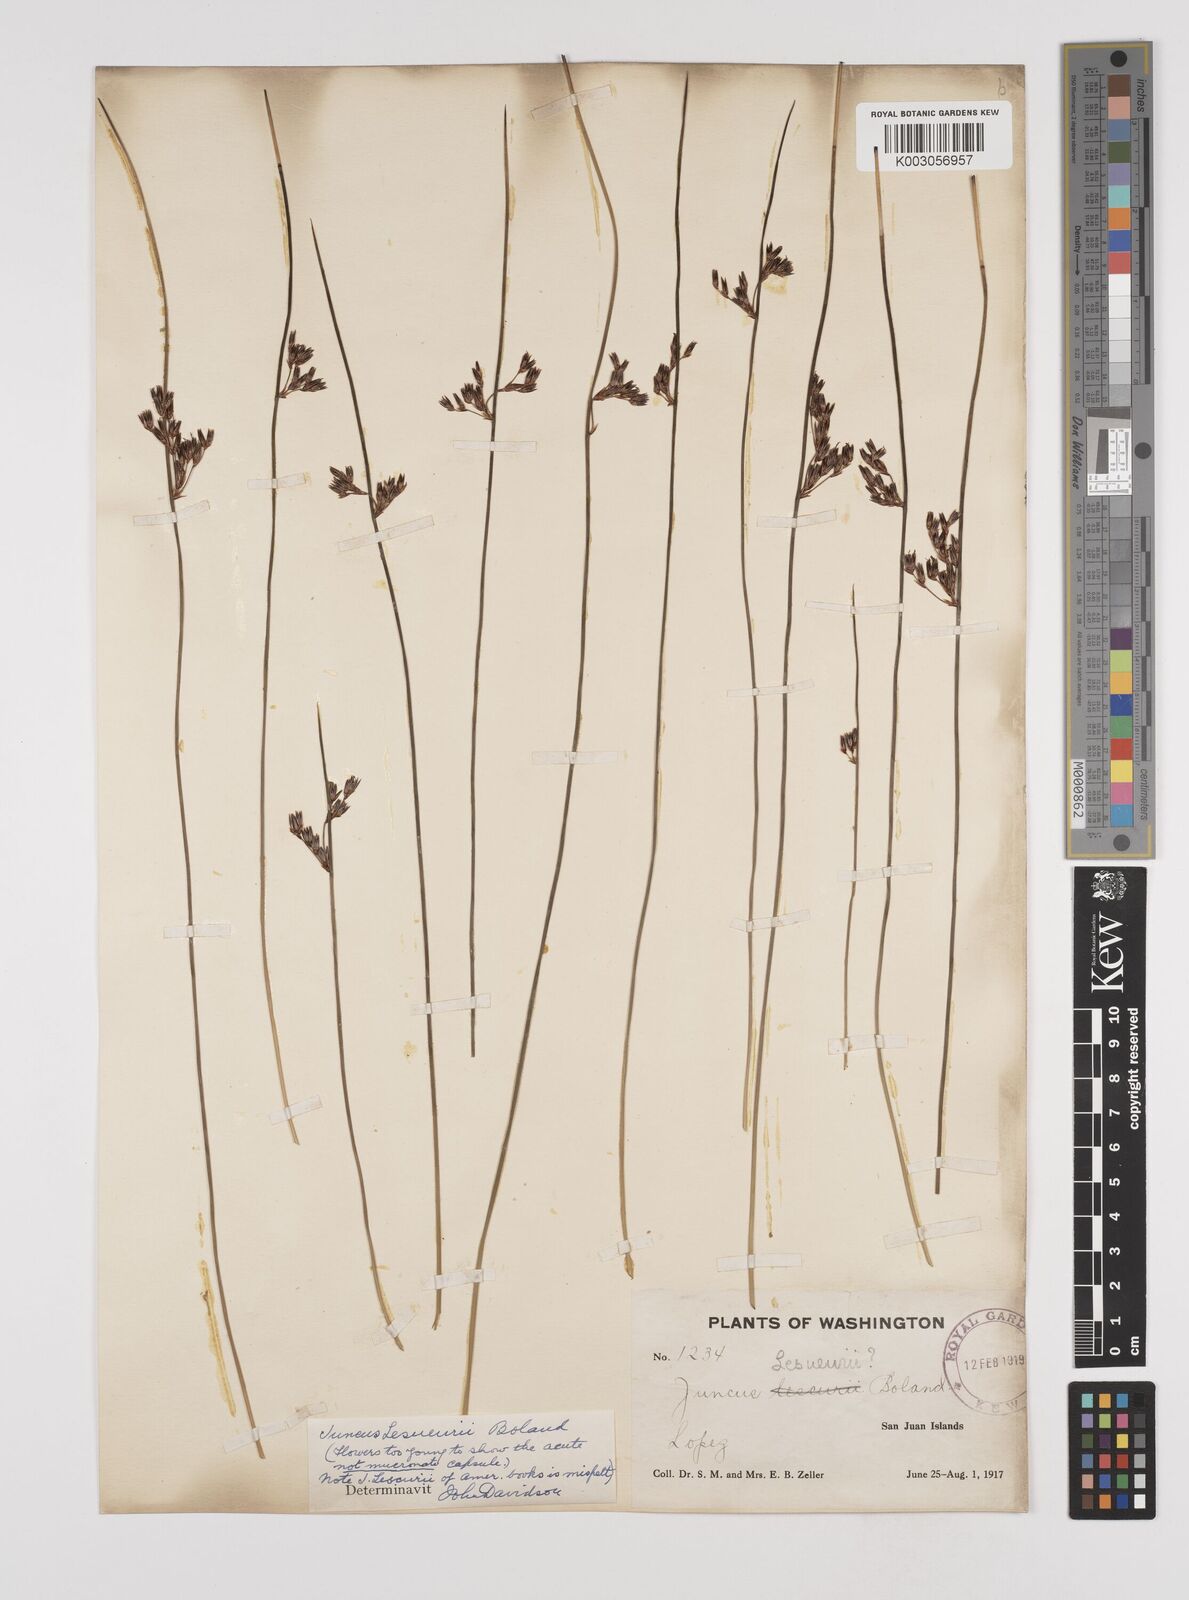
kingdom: Plantae
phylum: Tracheophyta
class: Liliopsida
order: Poales
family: Juncaceae
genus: Juncus
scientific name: Juncus lesueurii
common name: Lesueur's rush
